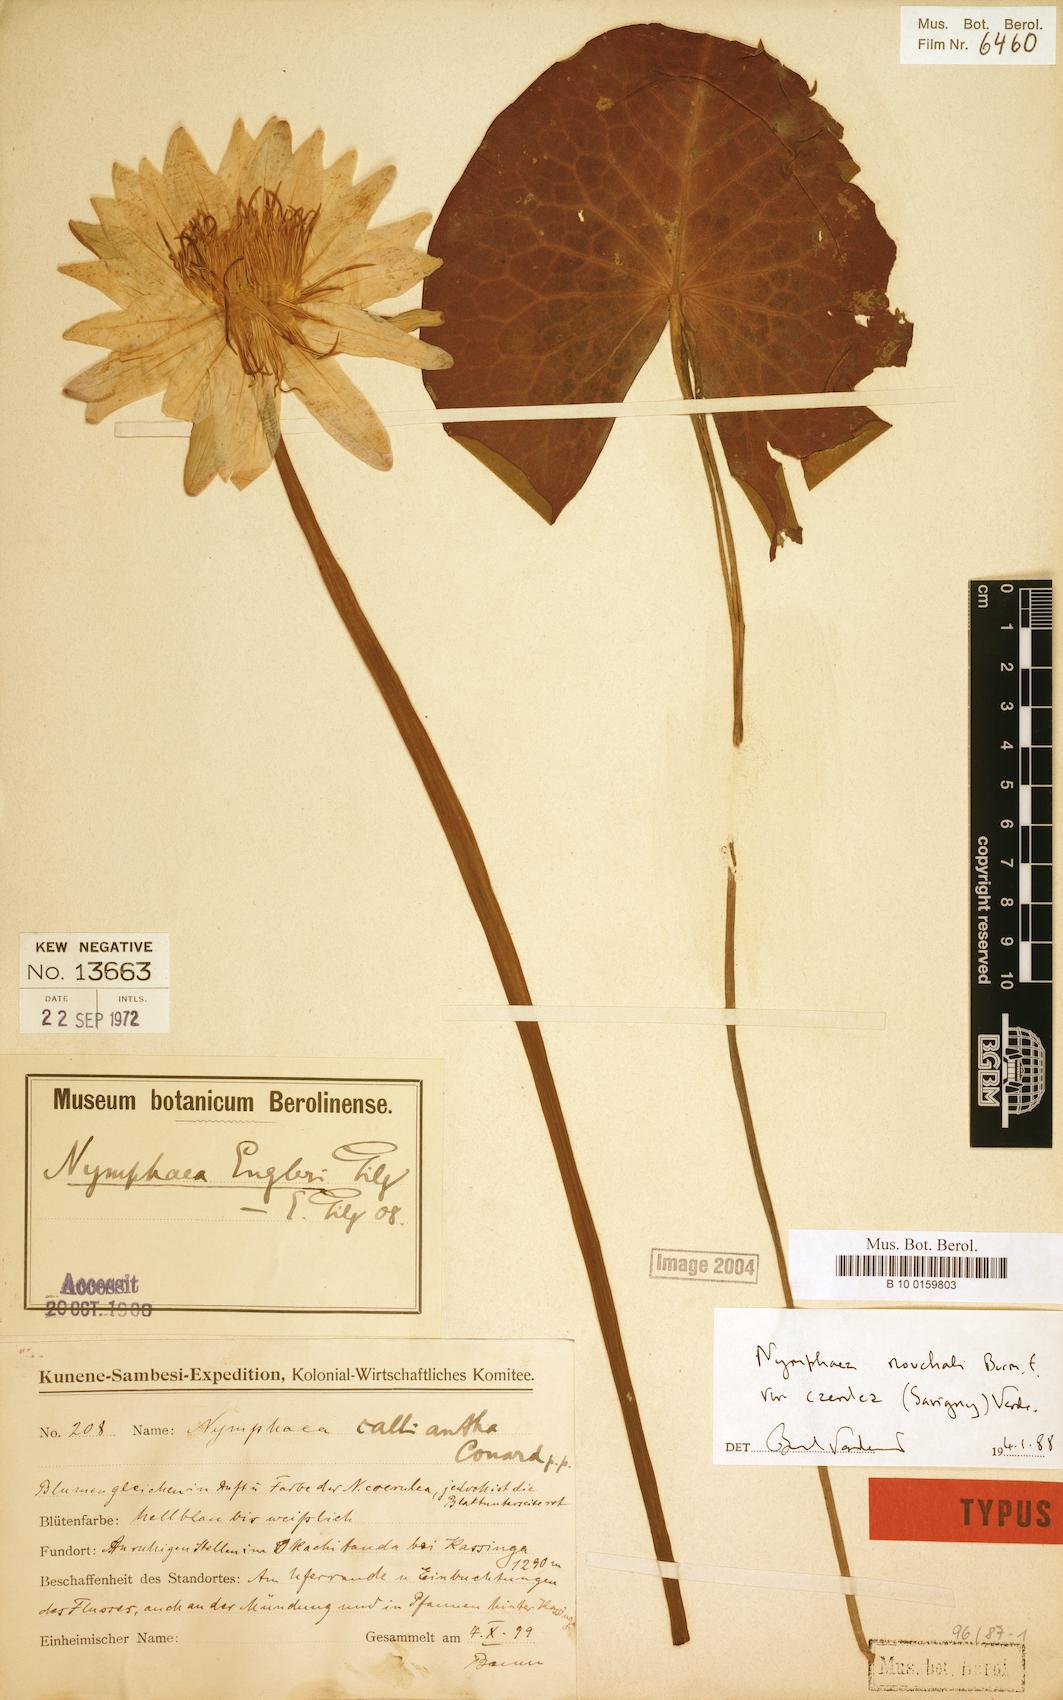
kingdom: Plantae
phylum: Tracheophyta
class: Magnoliopsida
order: Nymphaeales
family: Nymphaeaceae
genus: Nymphaea
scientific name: Nymphaea nouchali
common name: Blue lotus
